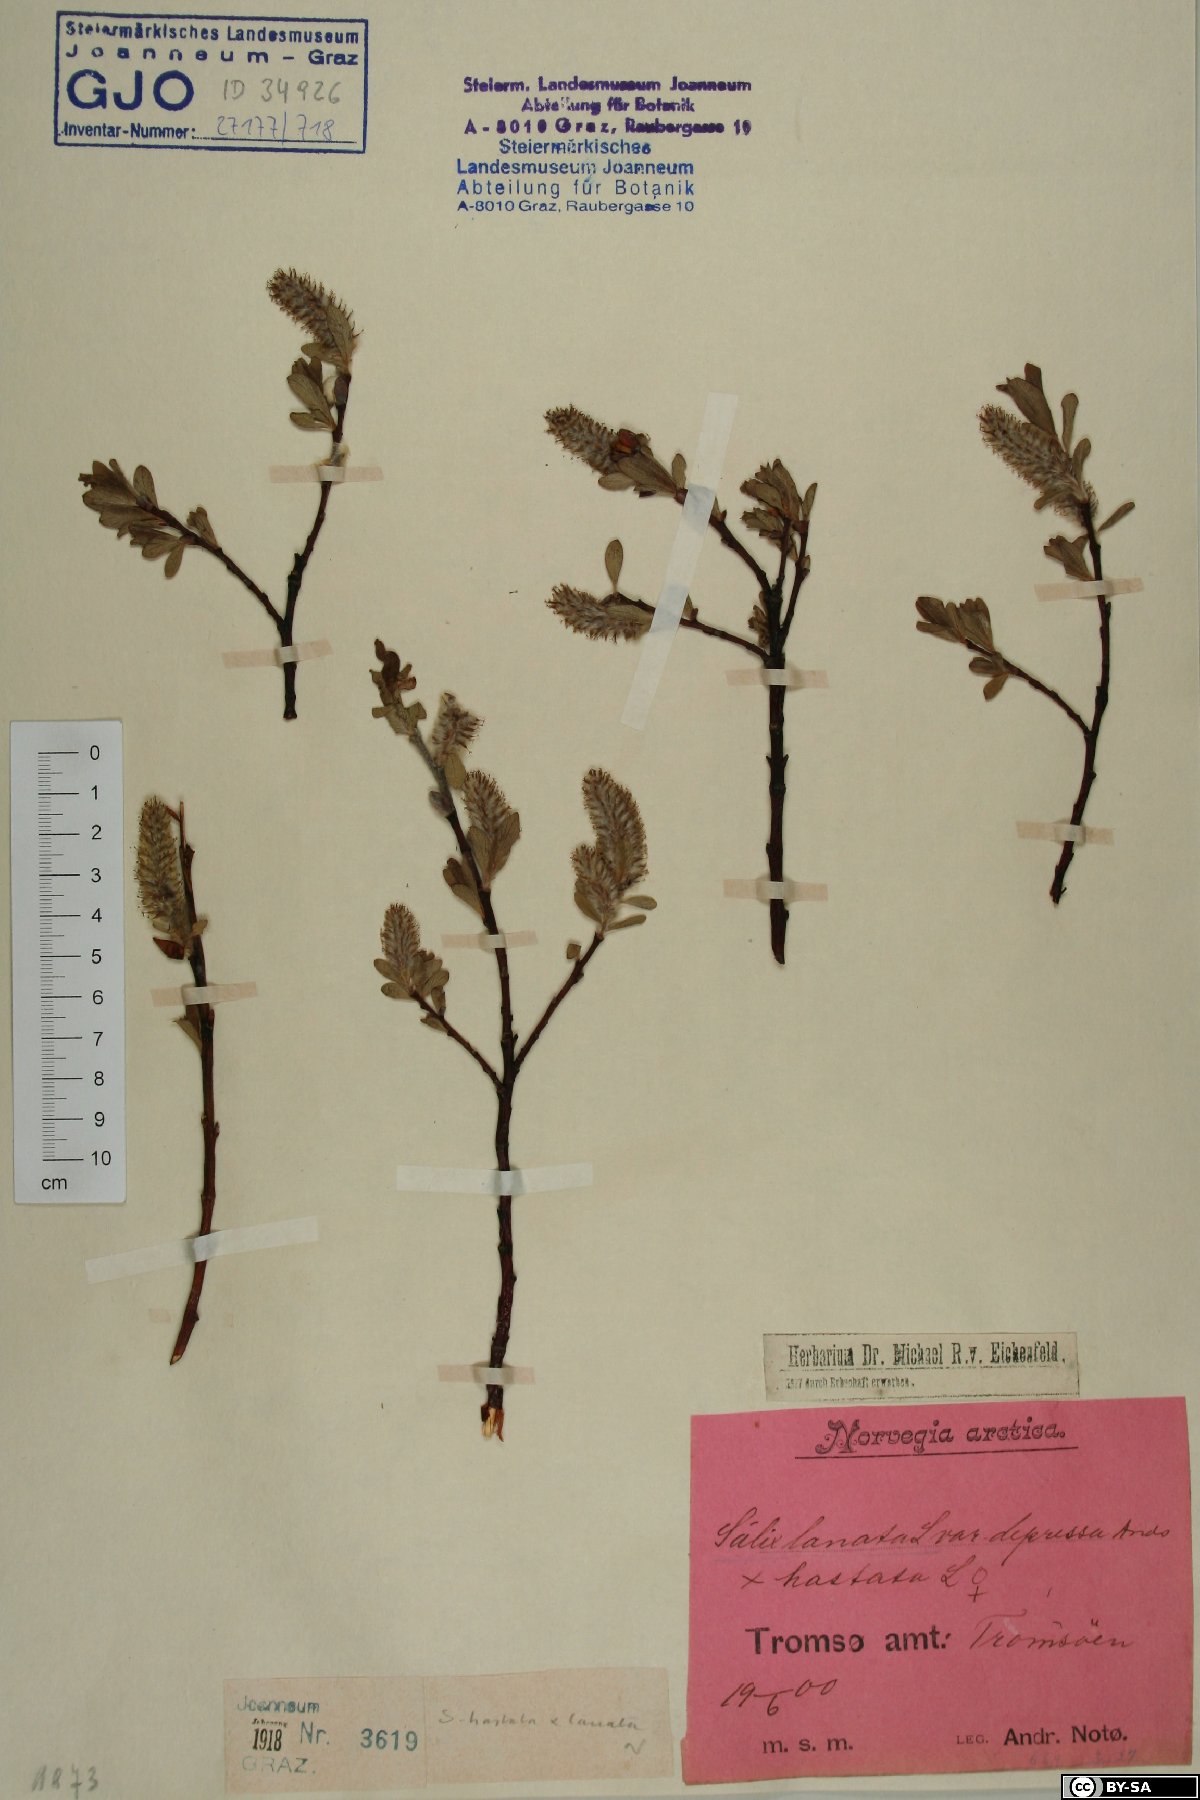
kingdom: Plantae
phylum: Tracheophyta
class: Magnoliopsida
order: Malpighiales
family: Salicaceae
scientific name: Salicaceae
